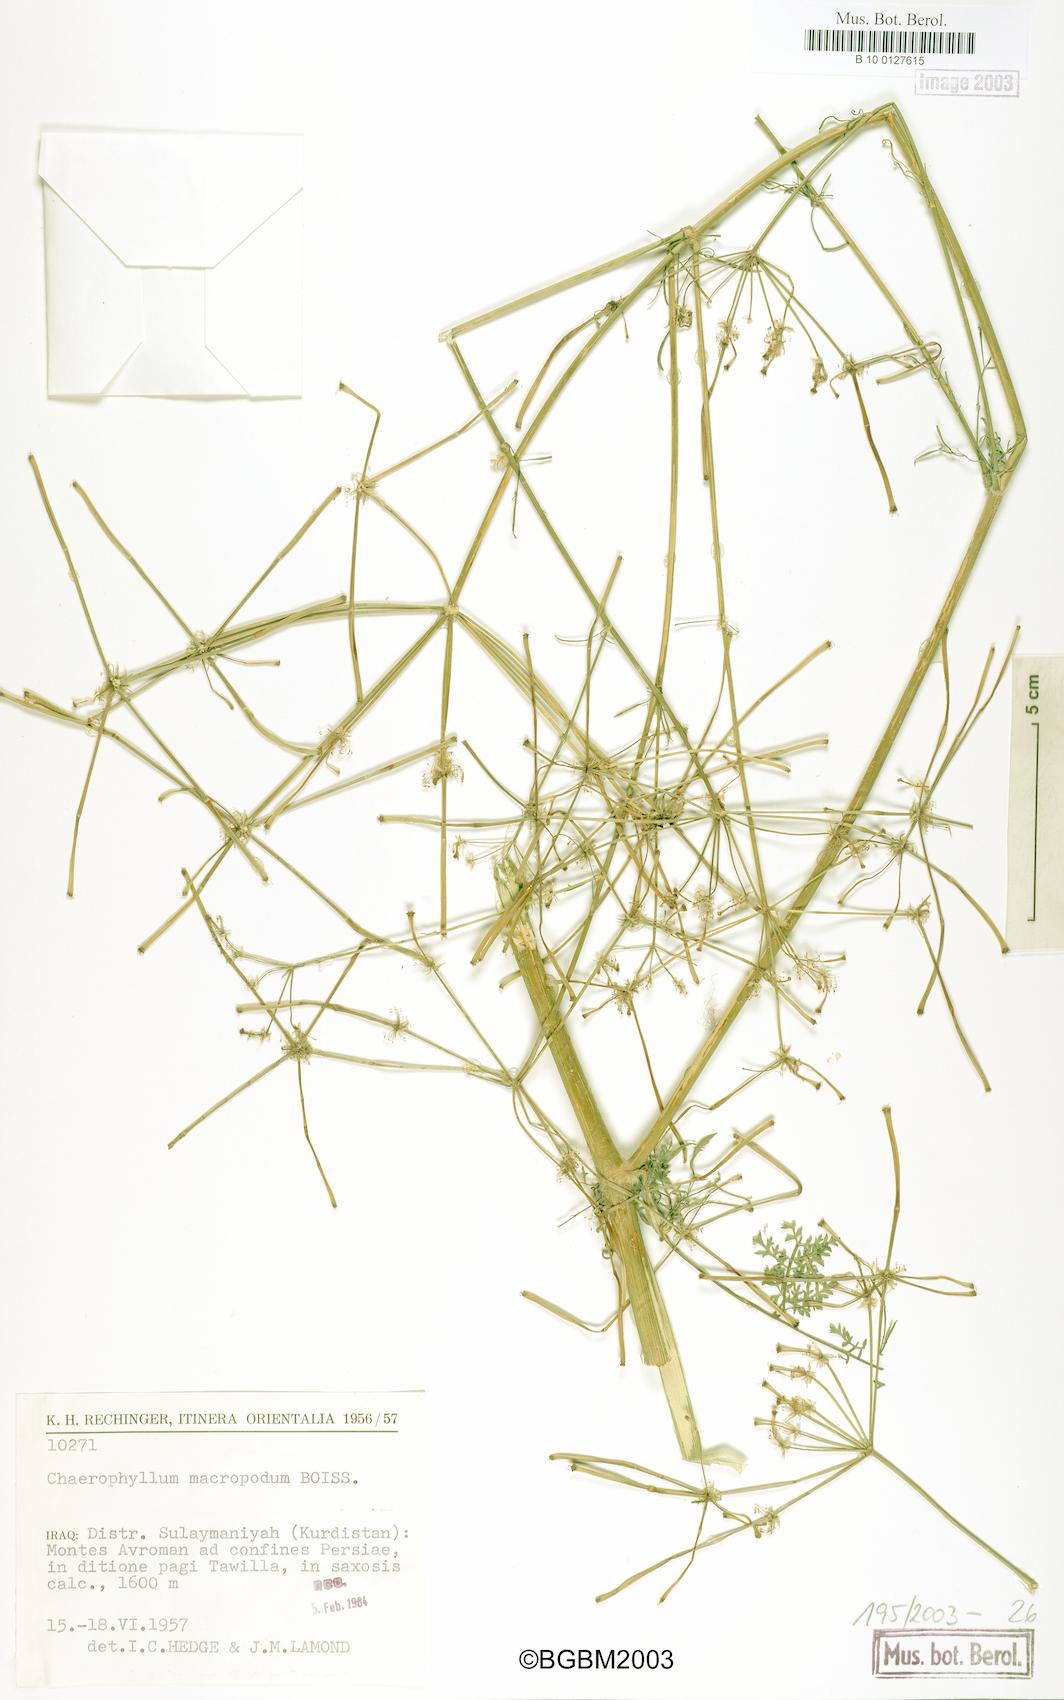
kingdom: Plantae
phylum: Tracheophyta
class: Magnoliopsida
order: Apiales
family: Apiaceae
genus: Chaerophyllum
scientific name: Chaerophyllum macropodum
